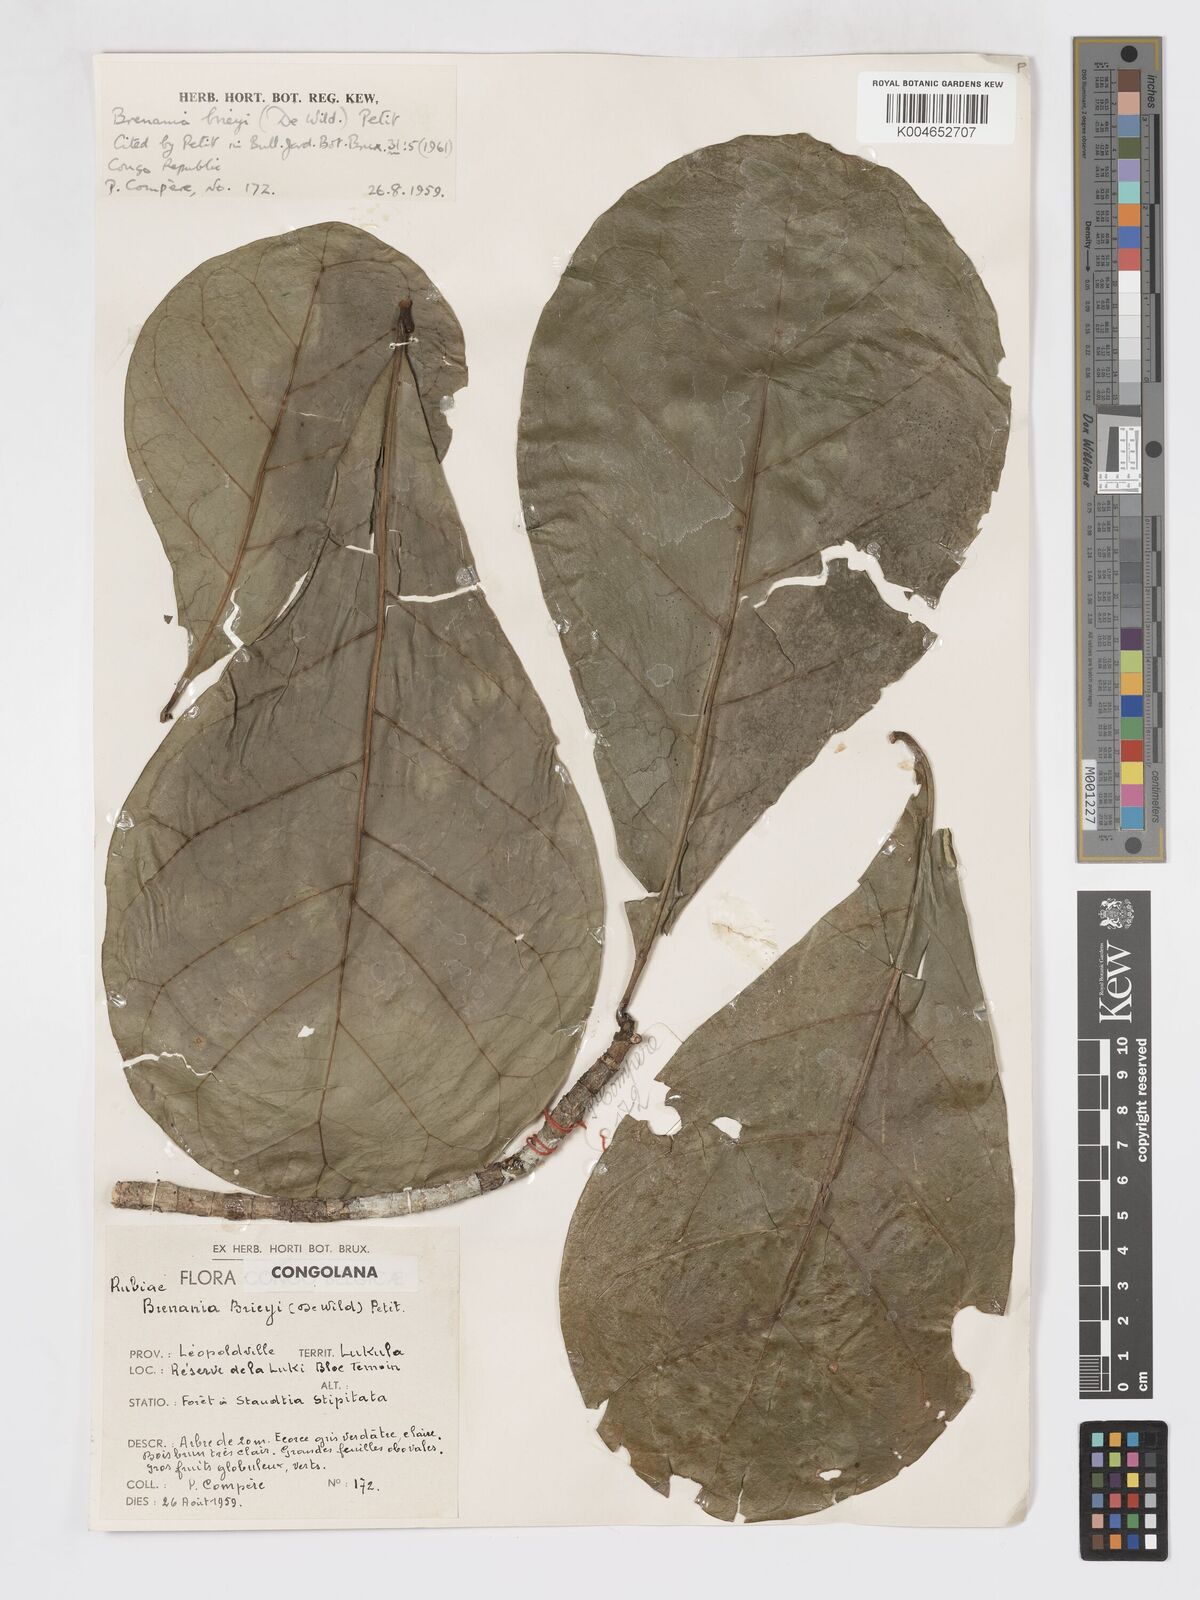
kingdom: Plantae
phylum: Tracheophyta
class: Magnoliopsida
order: Gentianales
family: Rubiaceae
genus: Brenania
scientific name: Brenania brieyi
